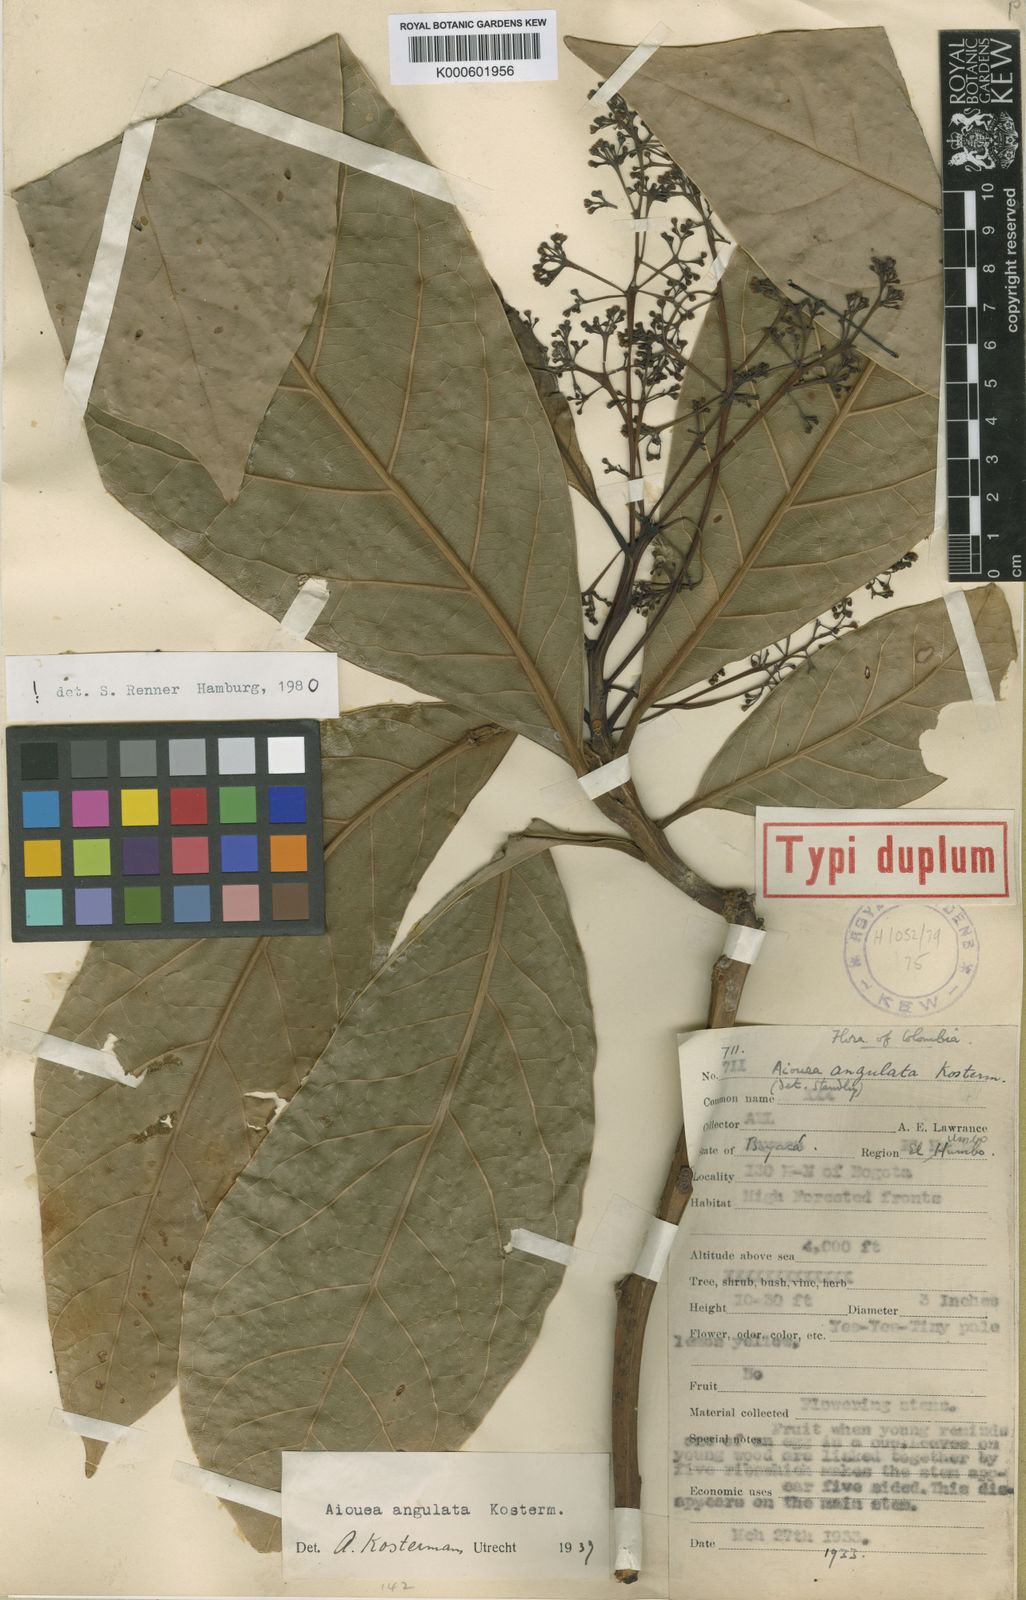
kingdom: Plantae
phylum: Tracheophyta
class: Magnoliopsida
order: Laurales
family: Lauraceae
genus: Aiouea
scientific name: Aiouea angulata
